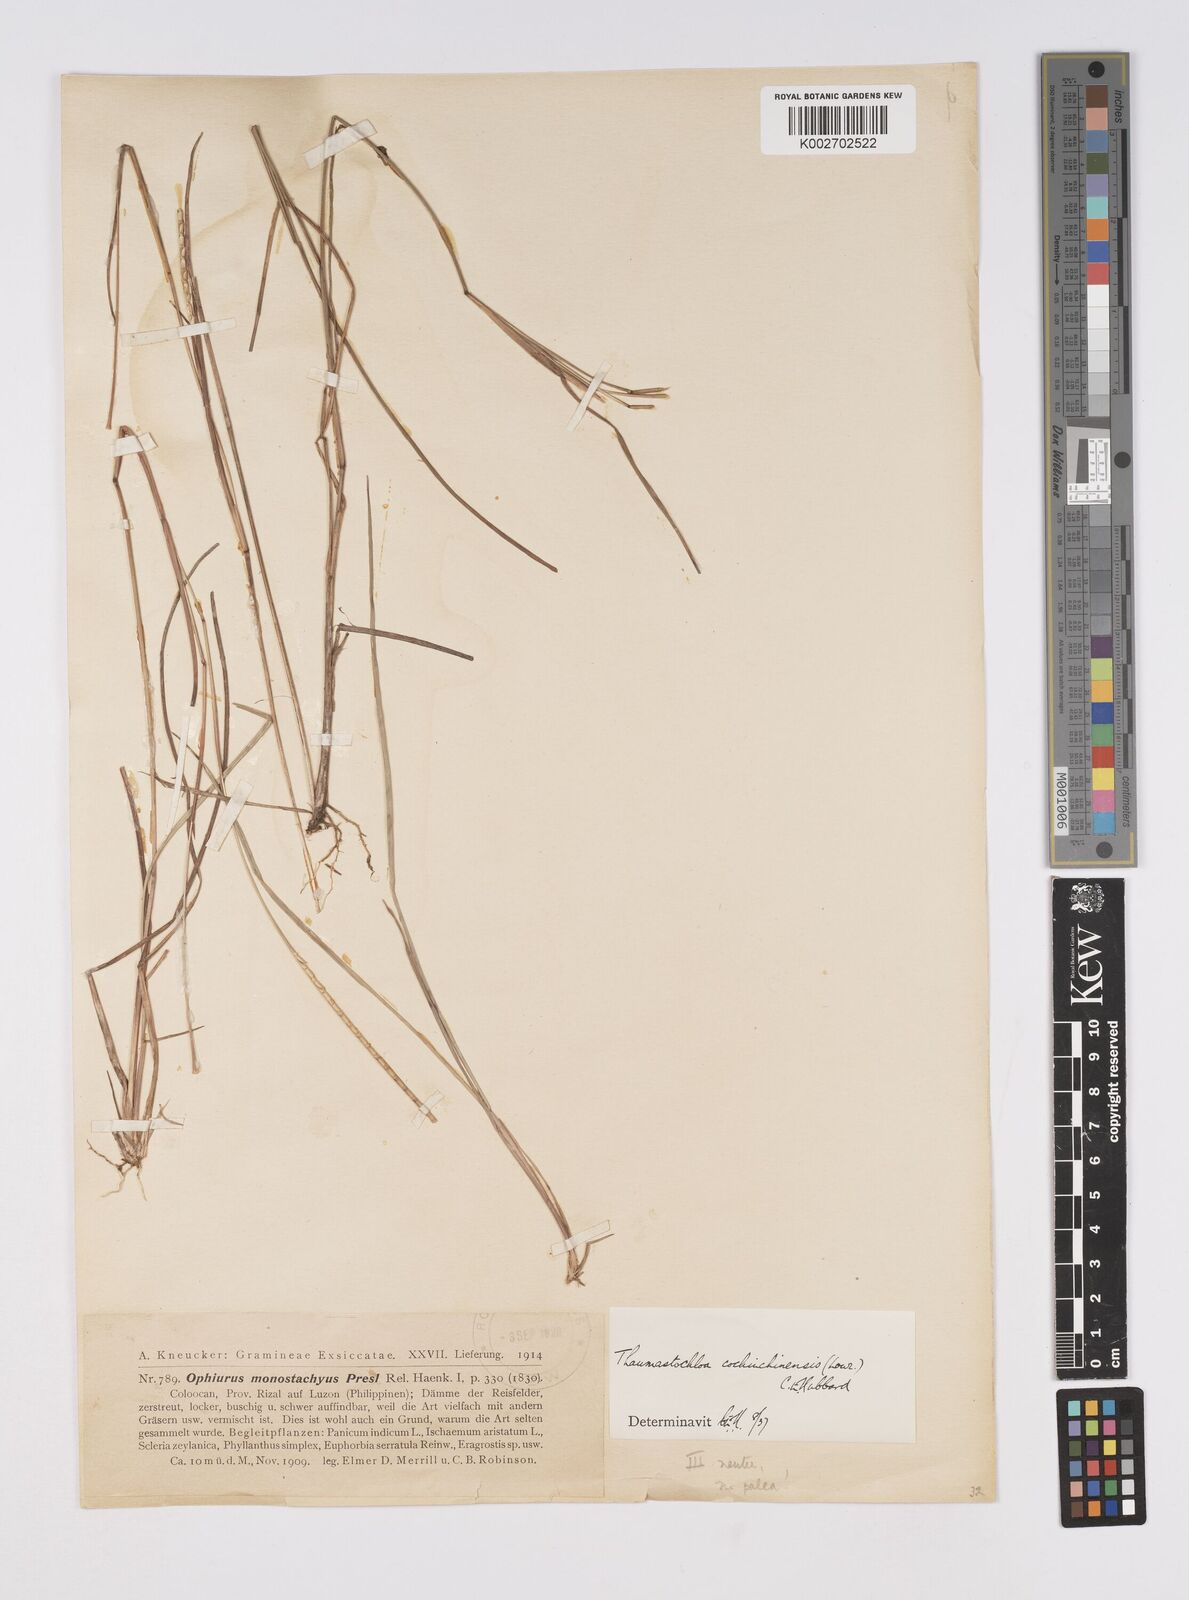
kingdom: Plantae
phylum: Tracheophyta
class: Liliopsida
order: Poales
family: Poaceae
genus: Mnesithea
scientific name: Mnesithea
